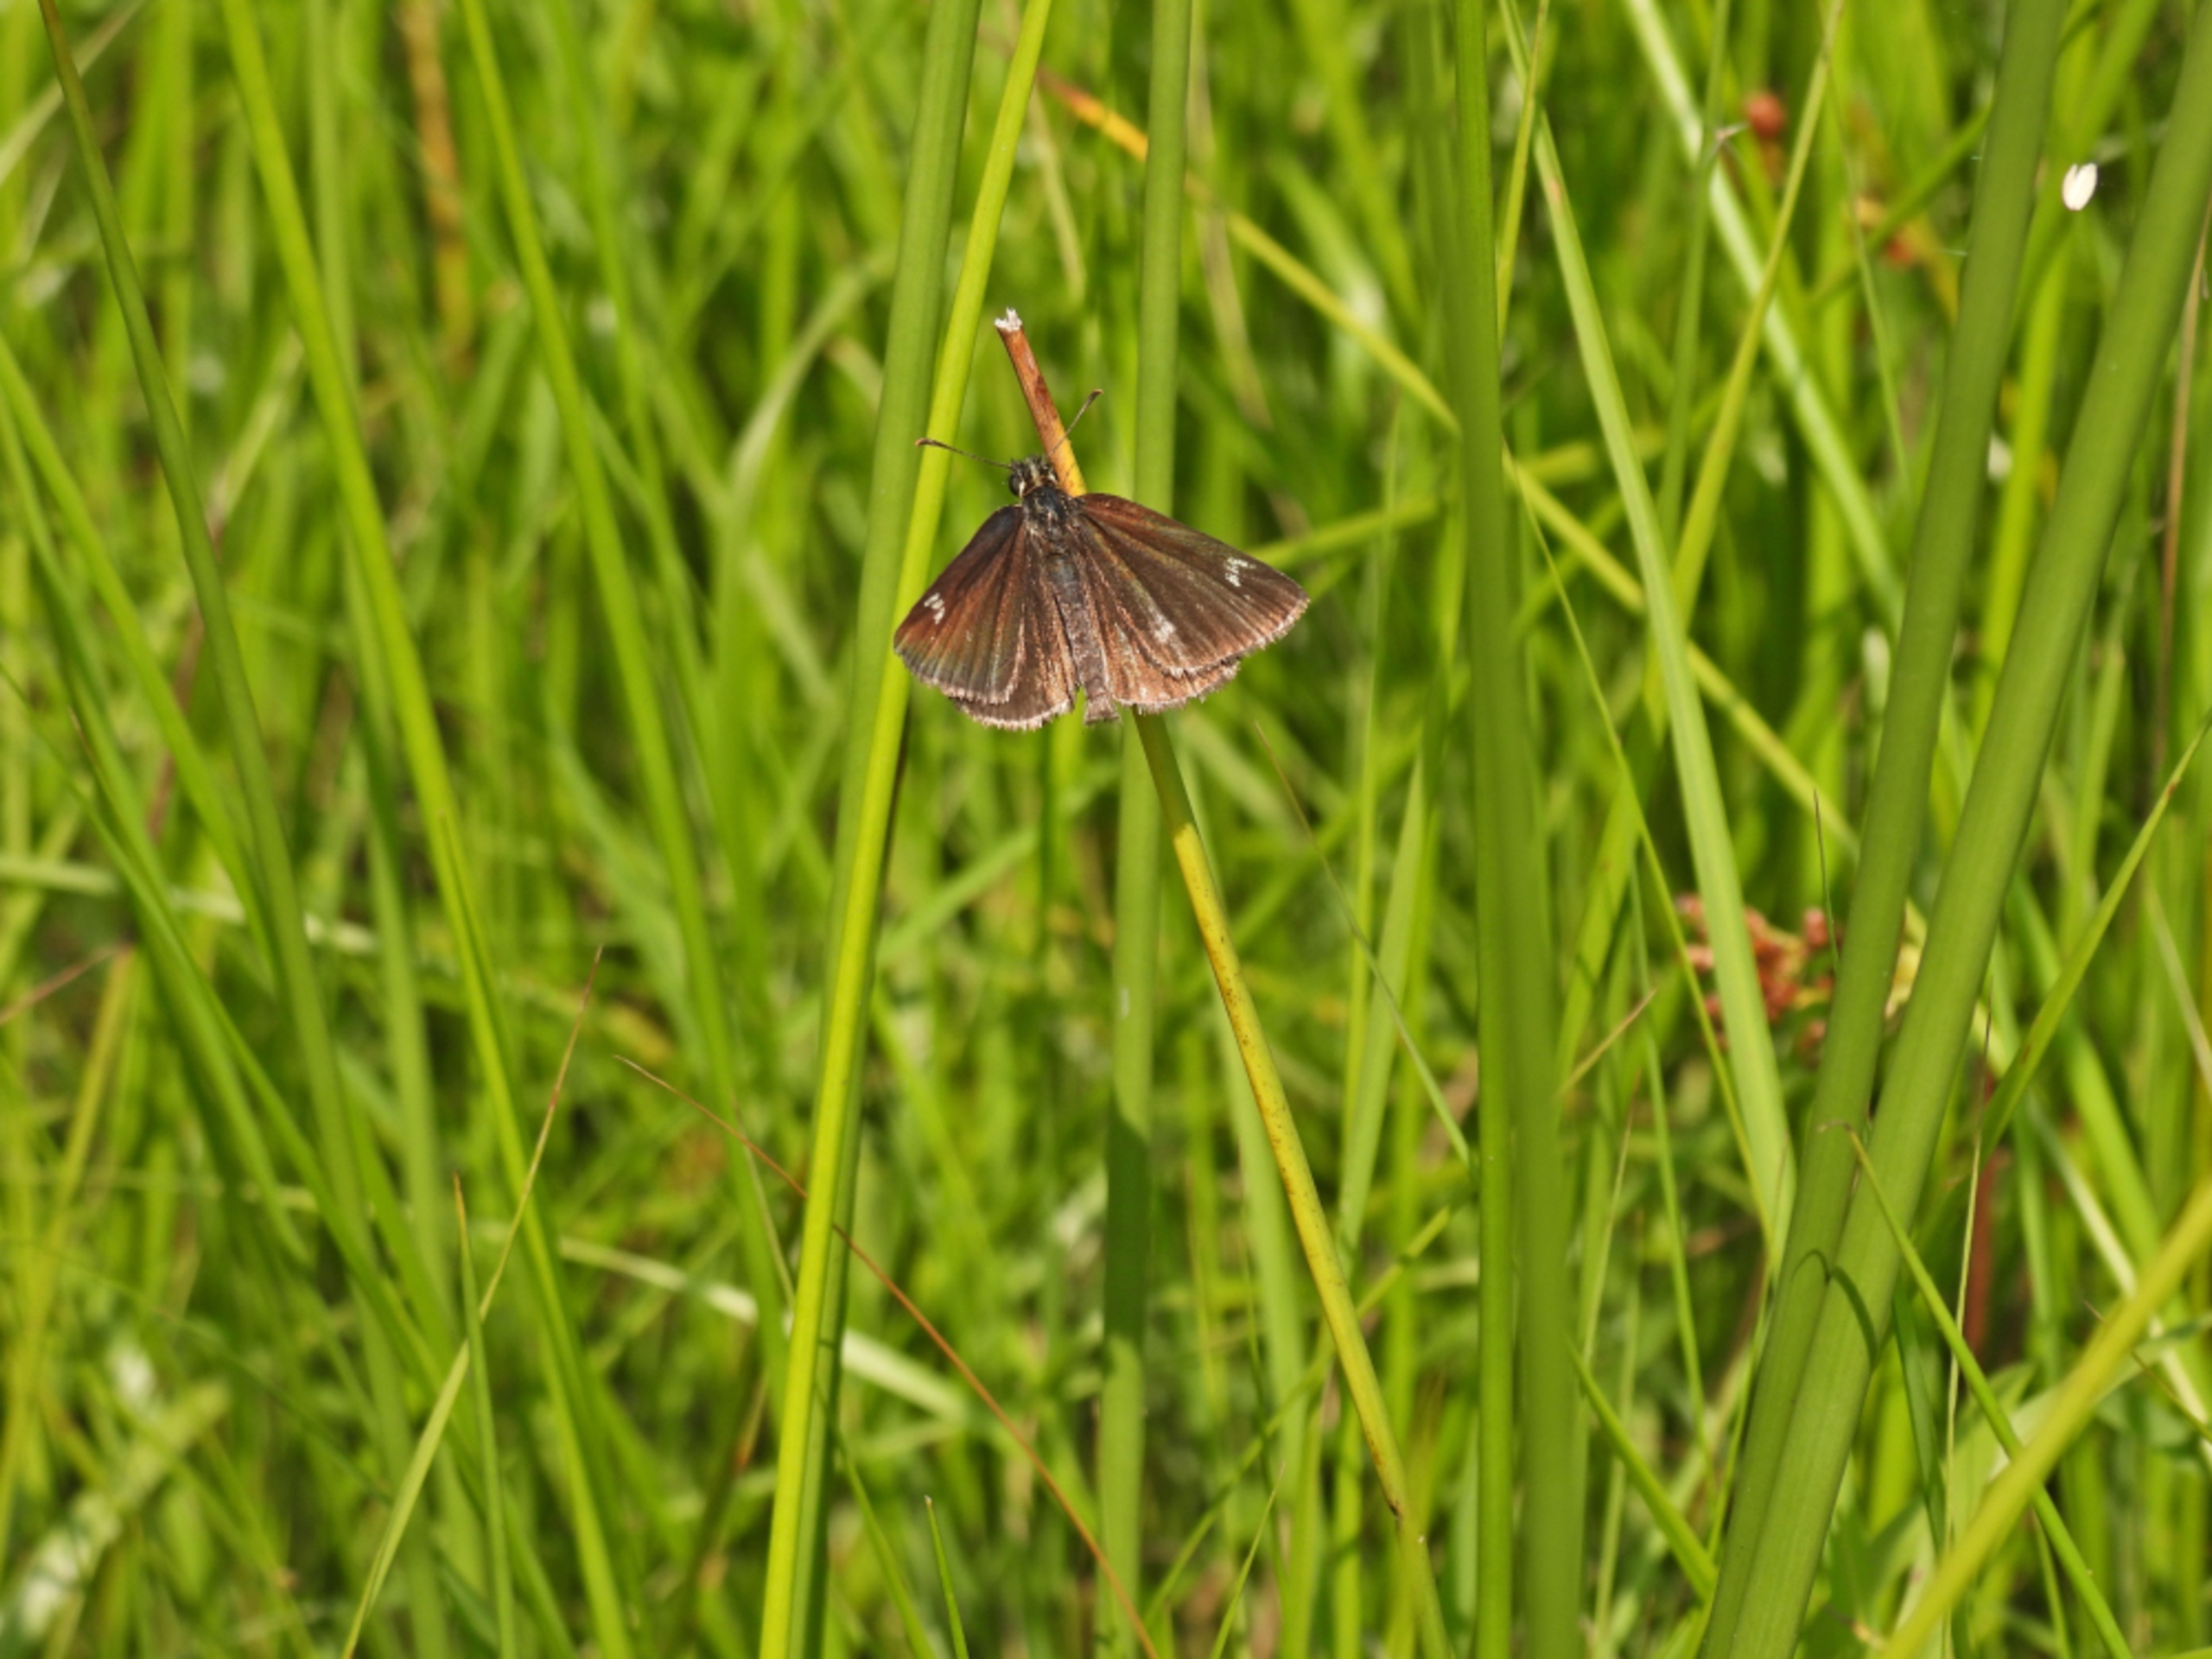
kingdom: Animalia
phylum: Arthropoda
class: Insecta
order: Lepidoptera
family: Hesperiidae
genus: Heteropterus
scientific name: Heteropterus morpheus
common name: Spejlbredpande
